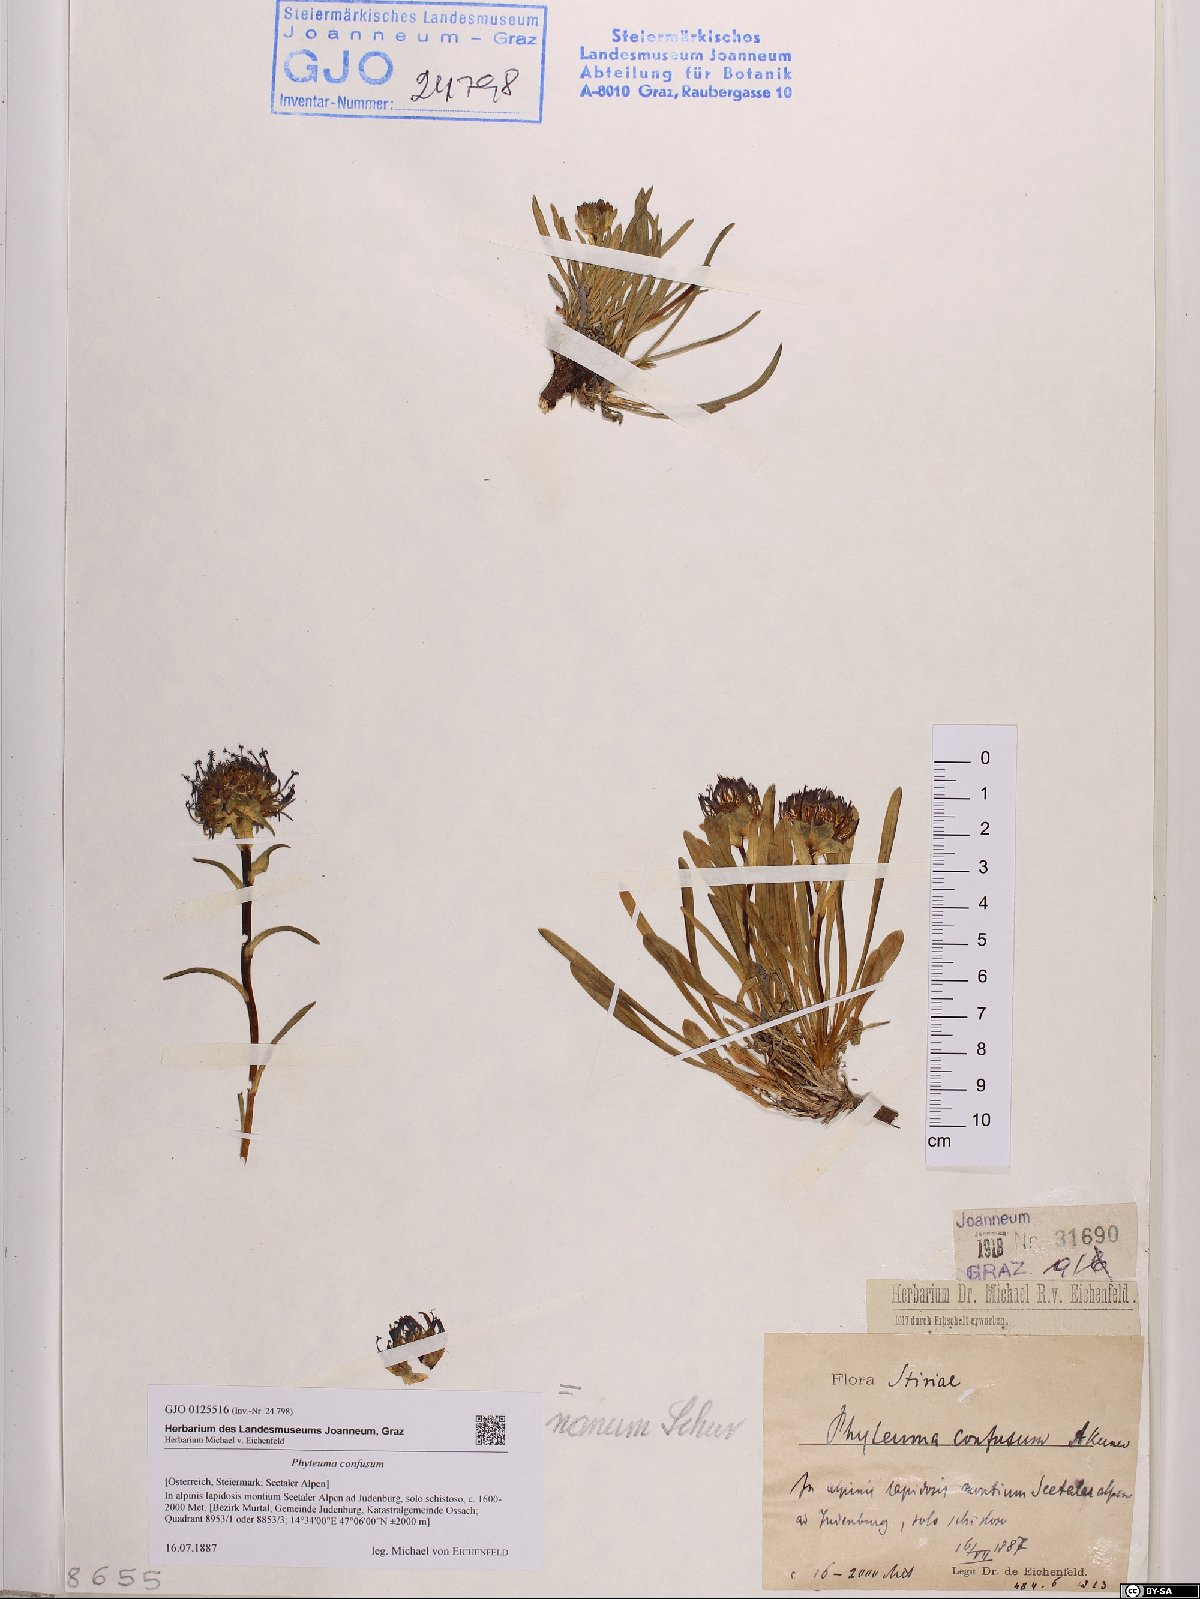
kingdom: Plantae
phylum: Tracheophyta
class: Magnoliopsida
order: Asterales
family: Campanulaceae
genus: Phyteuma
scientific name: Phyteuma confusum
